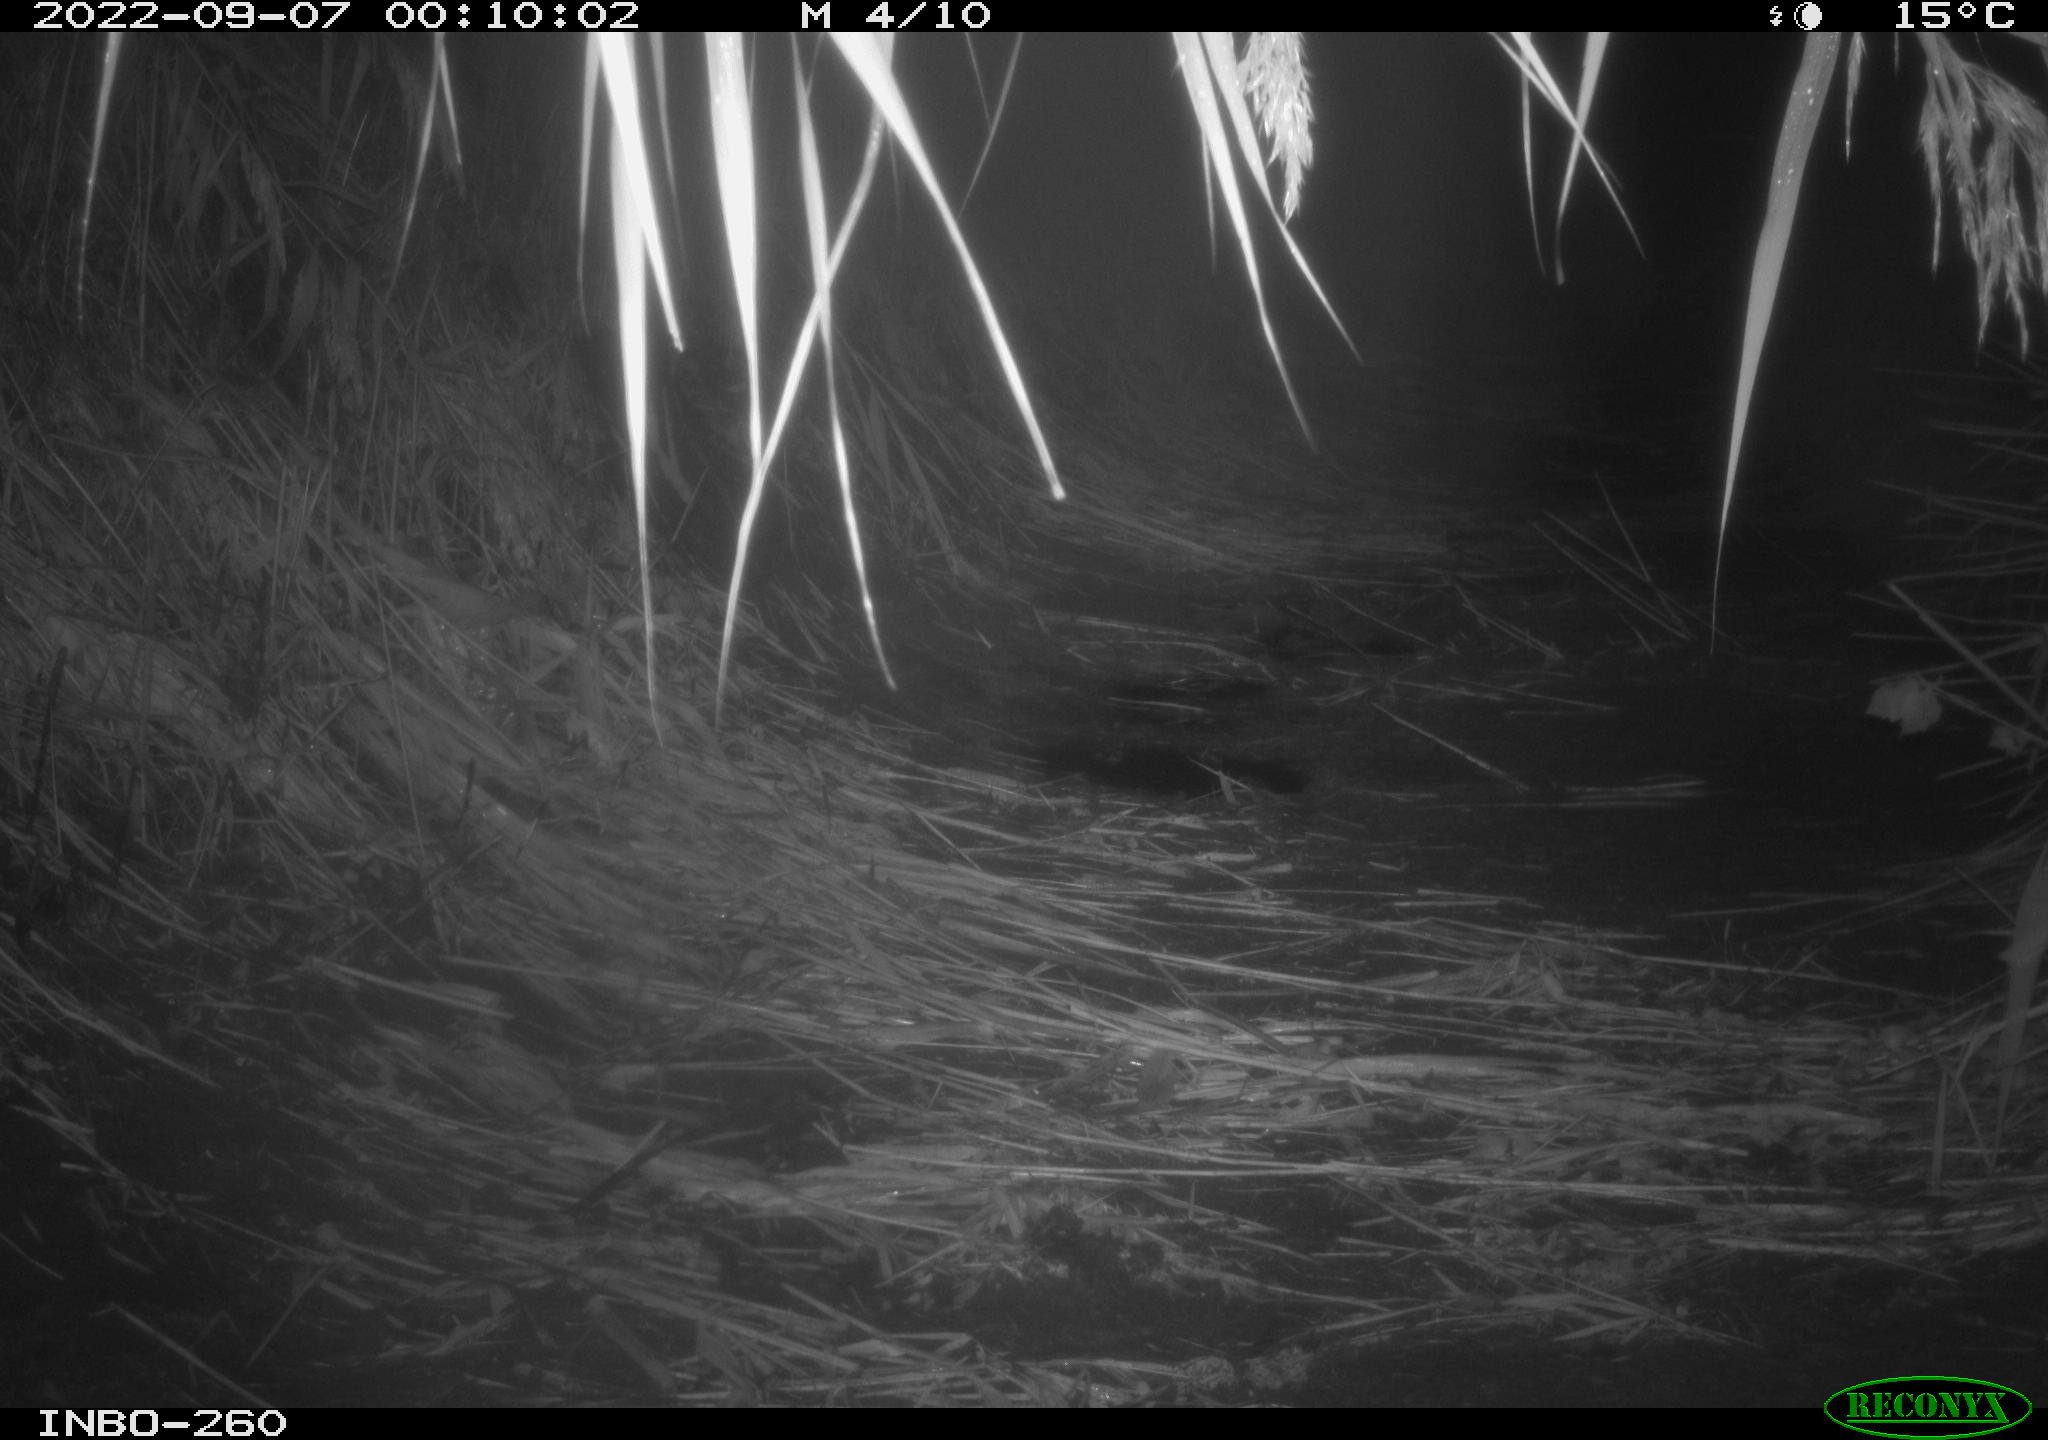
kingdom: Animalia
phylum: Chordata
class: Mammalia
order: Rodentia
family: Muridae
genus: Rattus
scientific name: Rattus norvegicus
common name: Brown rat
